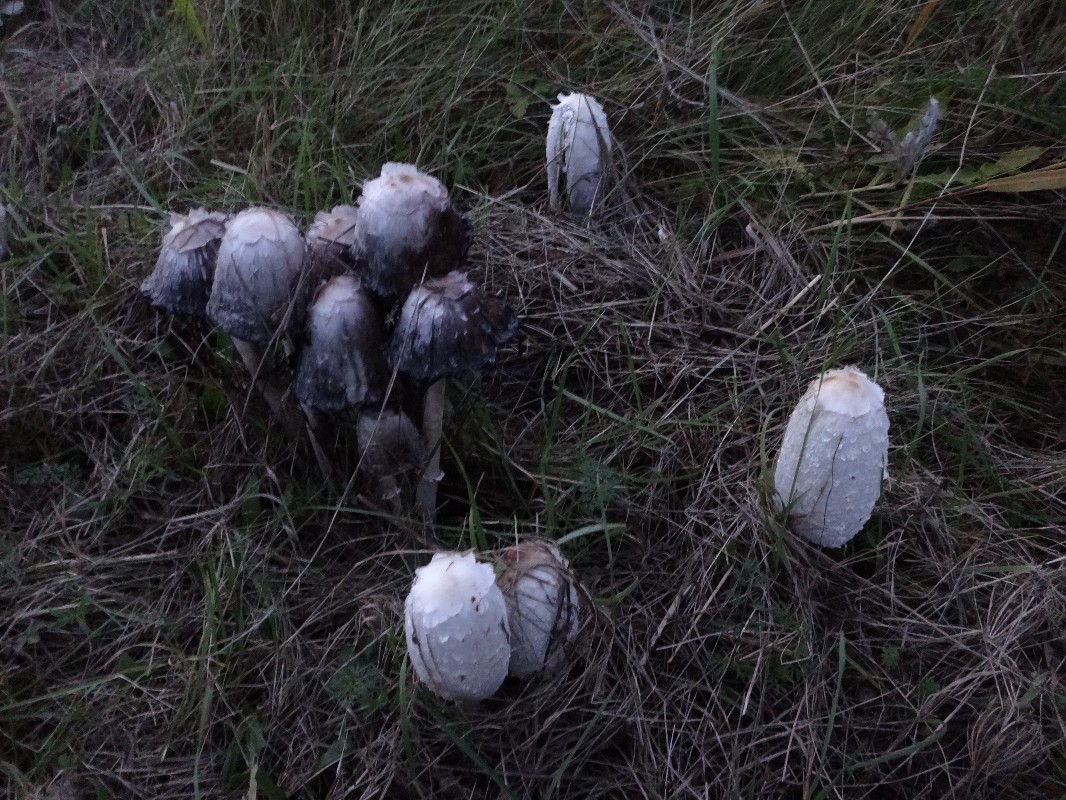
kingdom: Fungi
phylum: Basidiomycota
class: Agaricomycetes
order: Agaricales
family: Agaricaceae
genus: Coprinus
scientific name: Coprinus comatus
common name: stor parykhat
